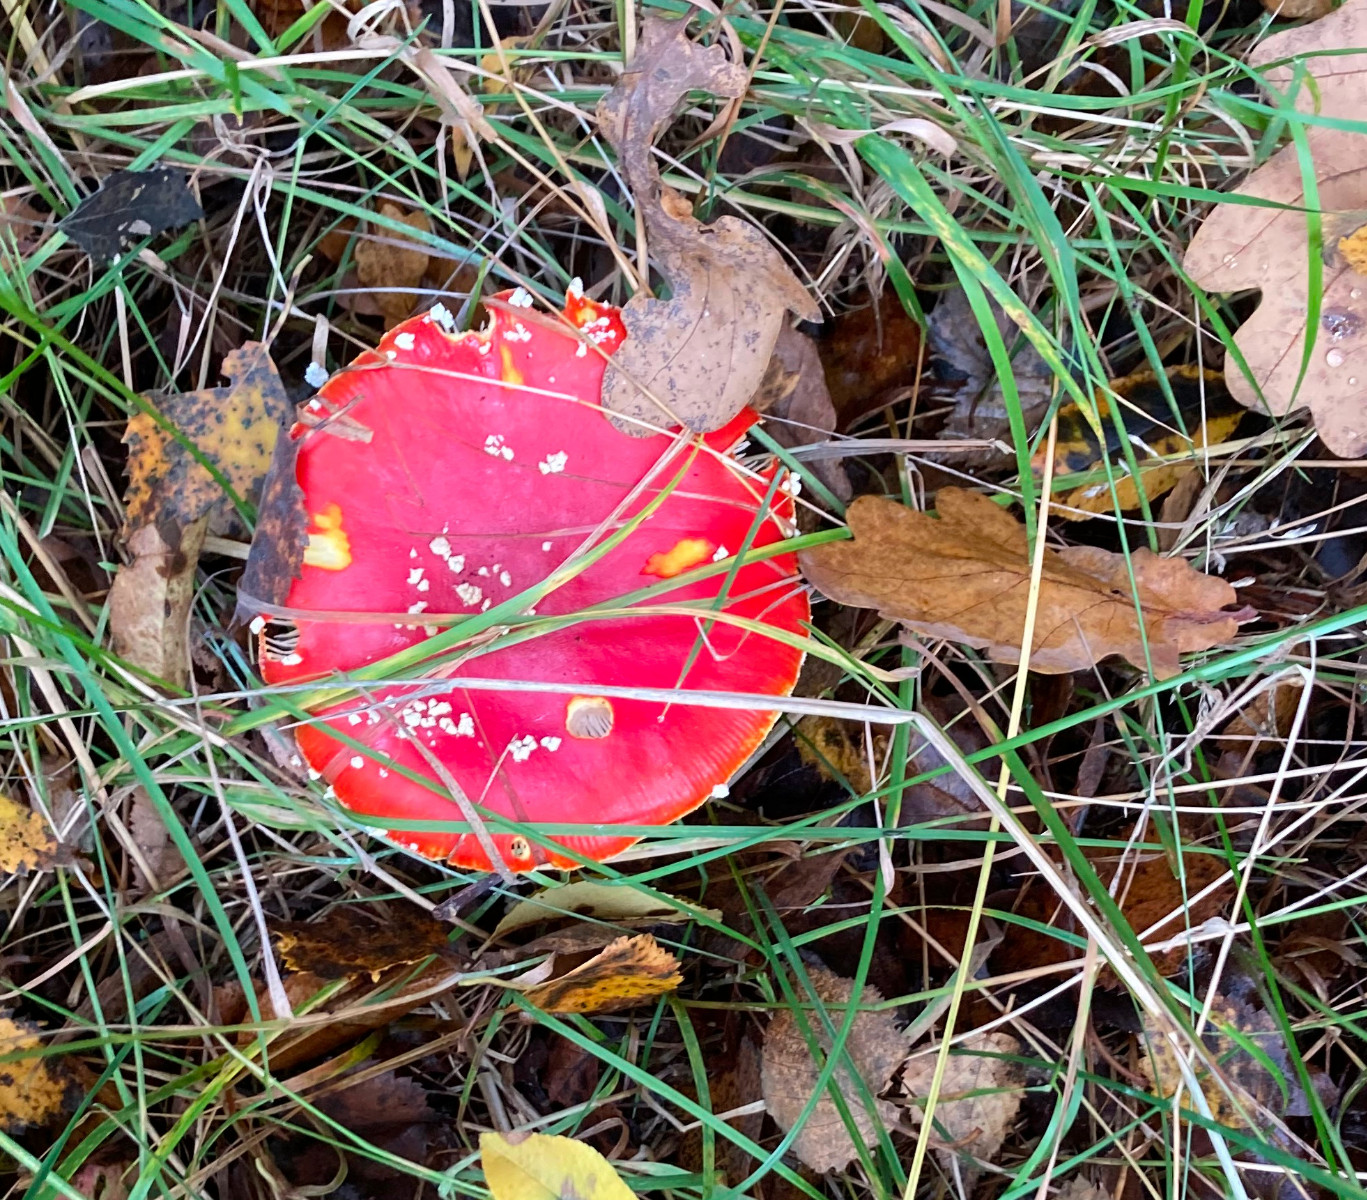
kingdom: Fungi
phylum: Basidiomycota
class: Agaricomycetes
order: Agaricales
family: Amanitaceae
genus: Amanita
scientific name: Amanita muscaria
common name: rød fluesvamp
